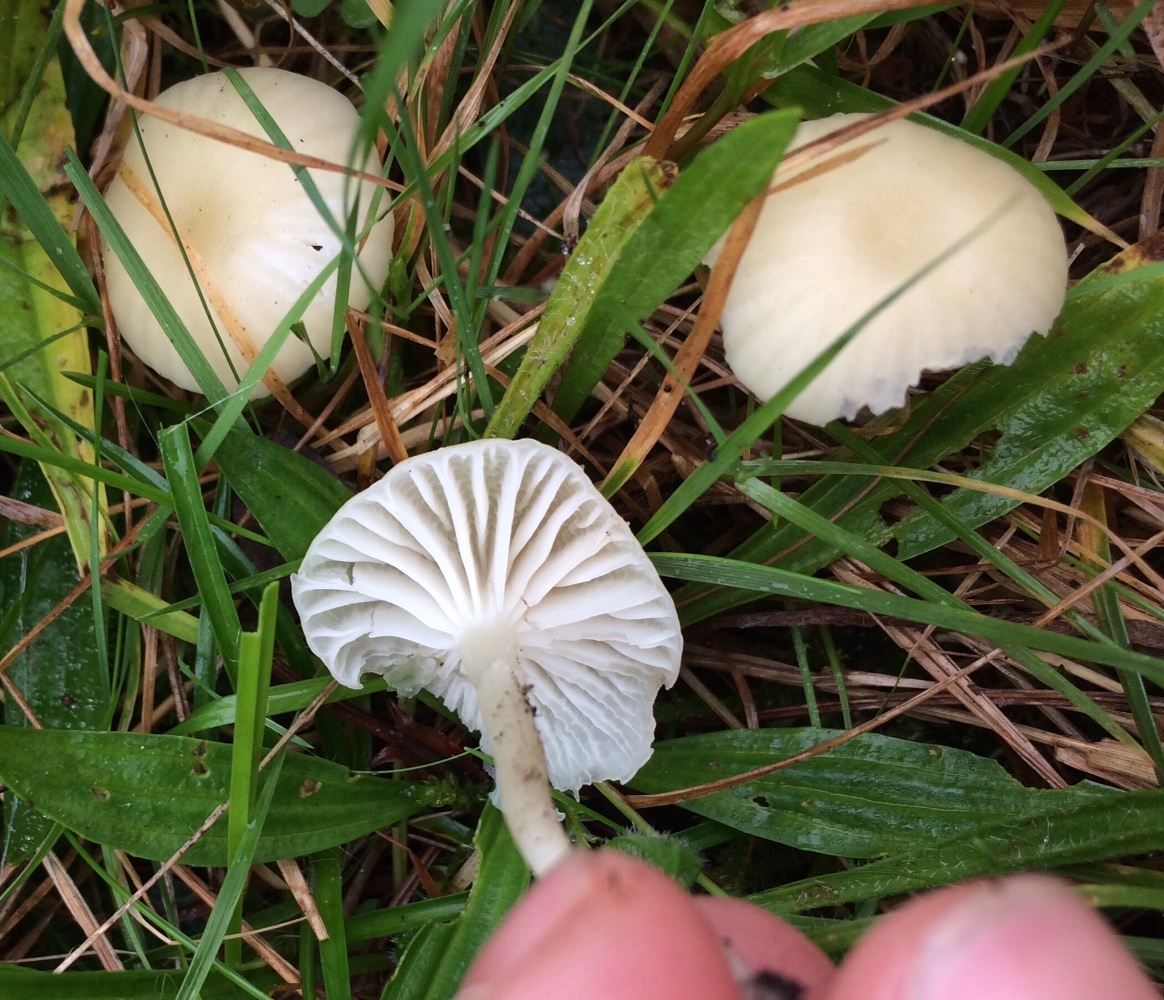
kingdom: Fungi
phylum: Basidiomycota
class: Agaricomycetes
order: Agaricales
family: Hygrophoraceae
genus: Cuphophyllus
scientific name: Cuphophyllus russocoriaceus
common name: ruslæder-vokshat
